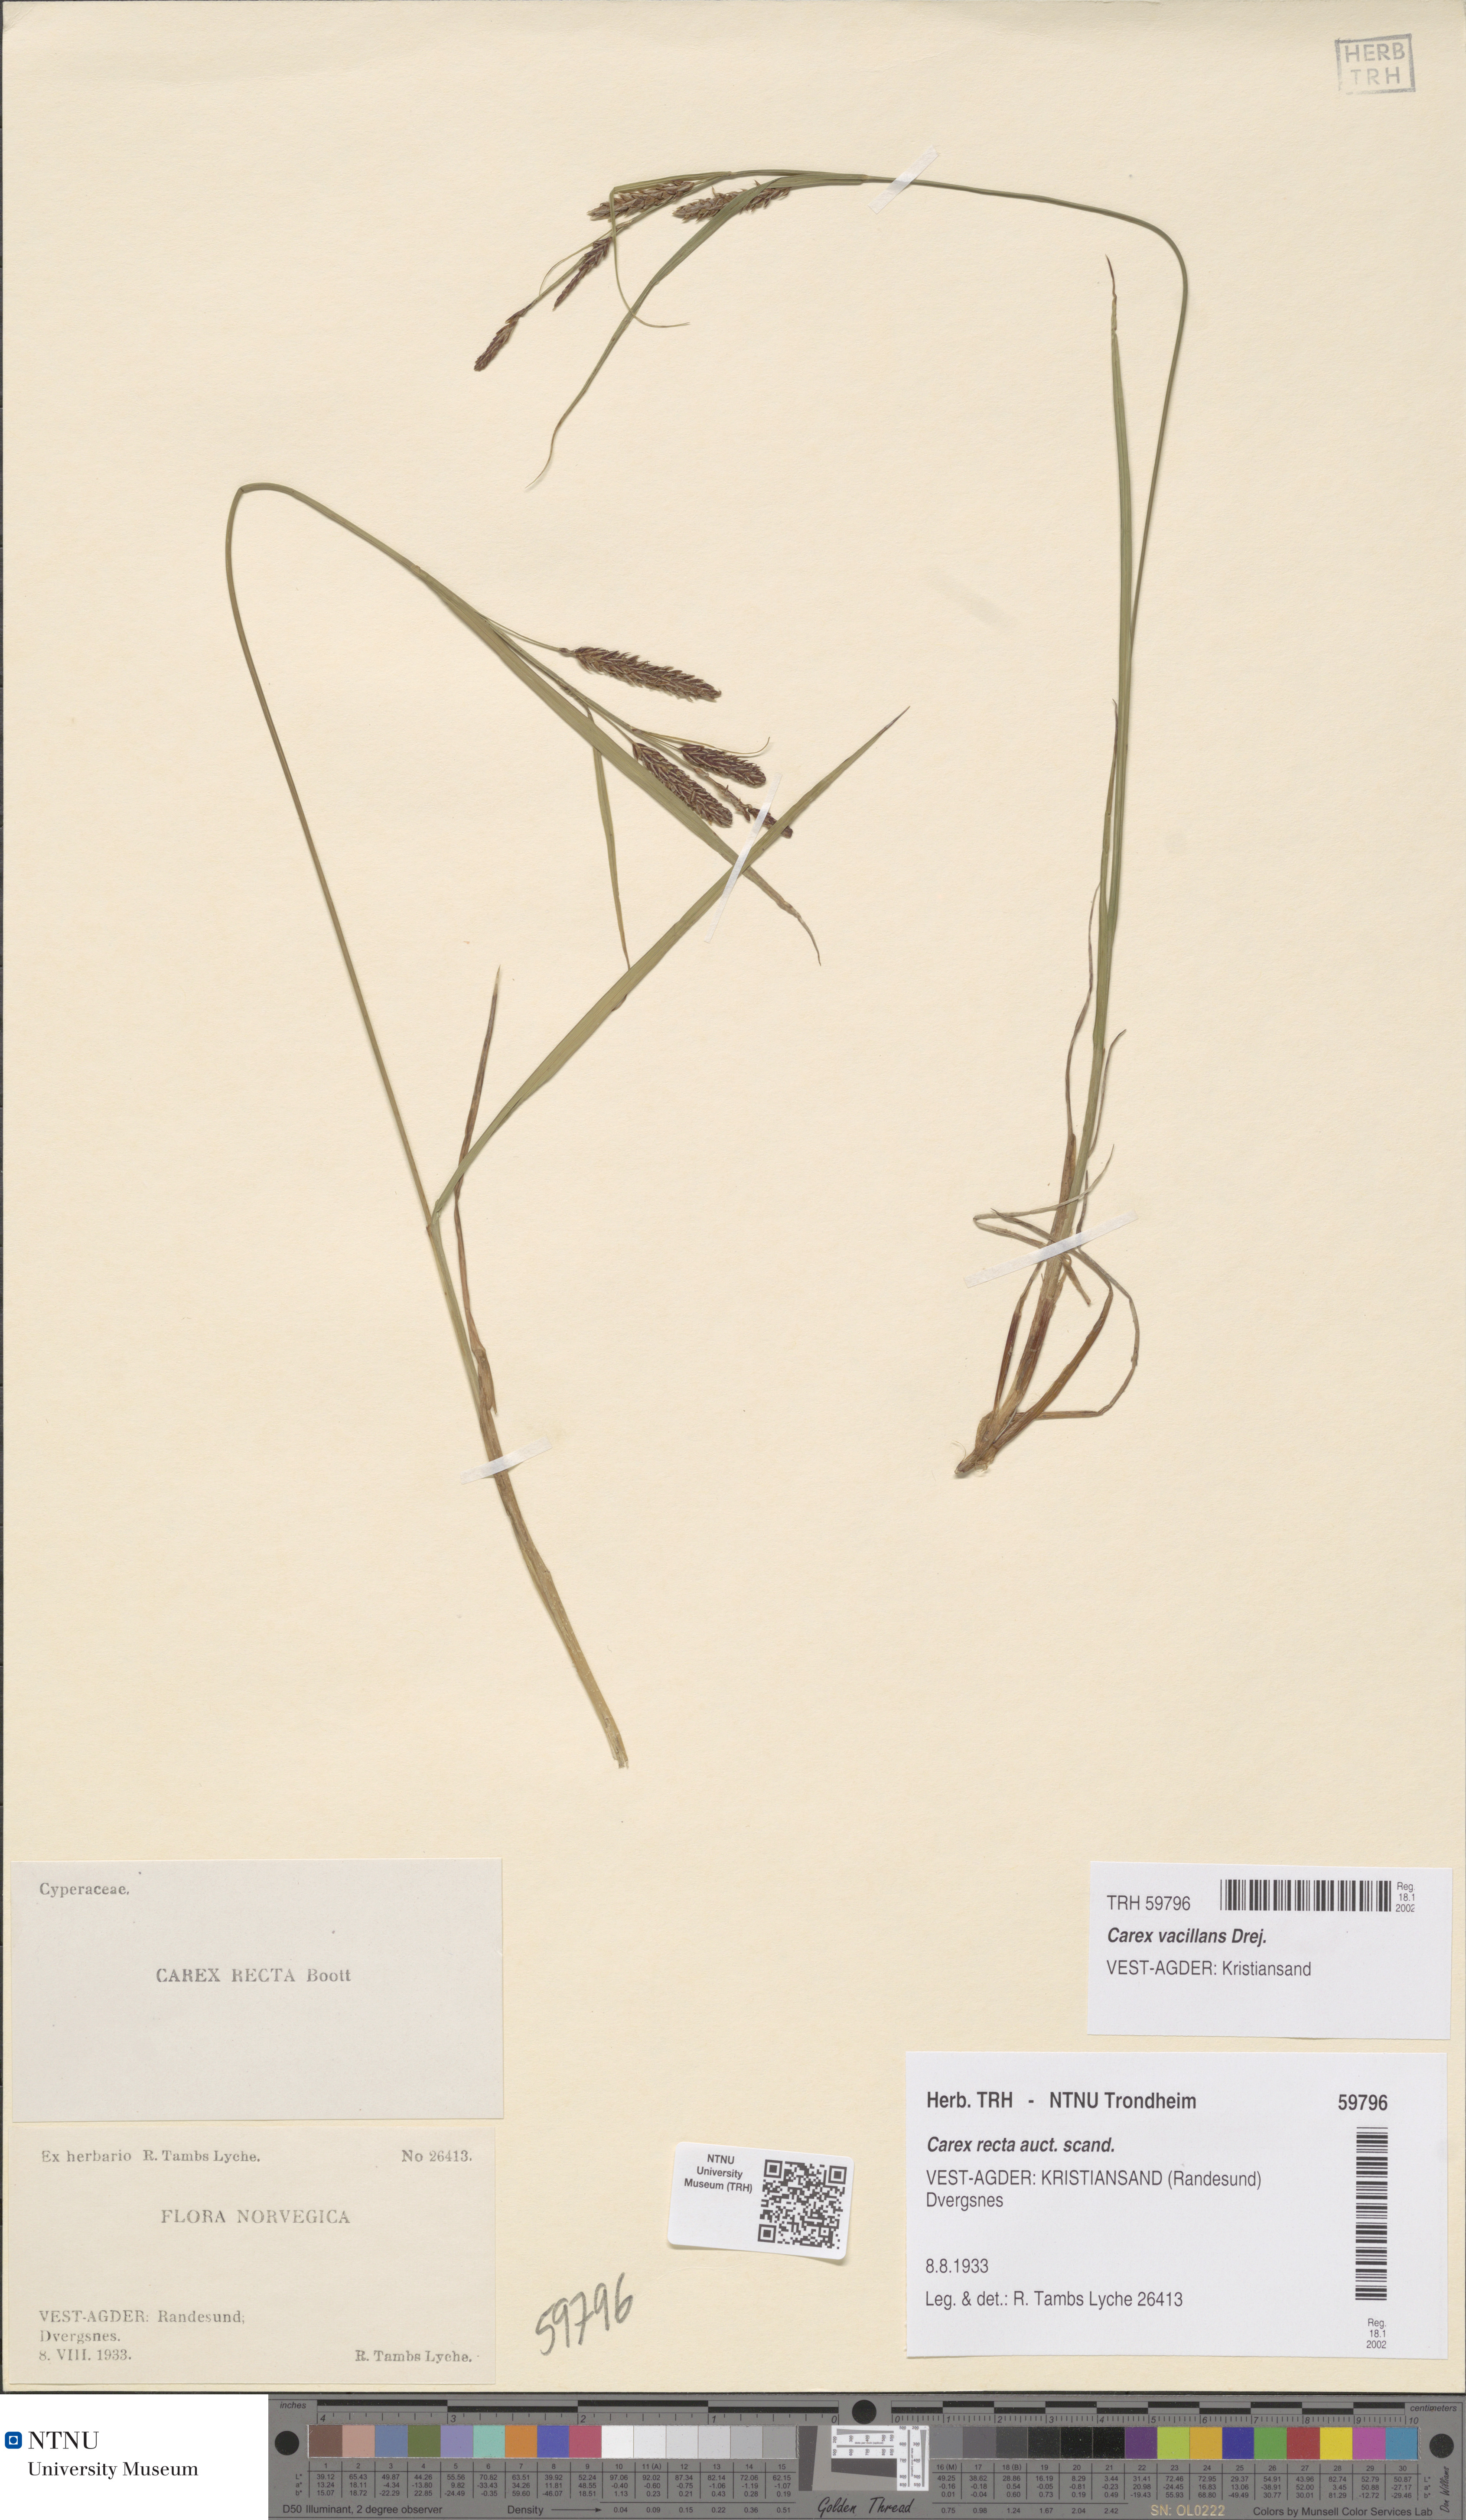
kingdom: Plantae
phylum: Tracheophyta
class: Liliopsida
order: Poales
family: Cyperaceae
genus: Carex
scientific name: Carex vacillans
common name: Sedge
